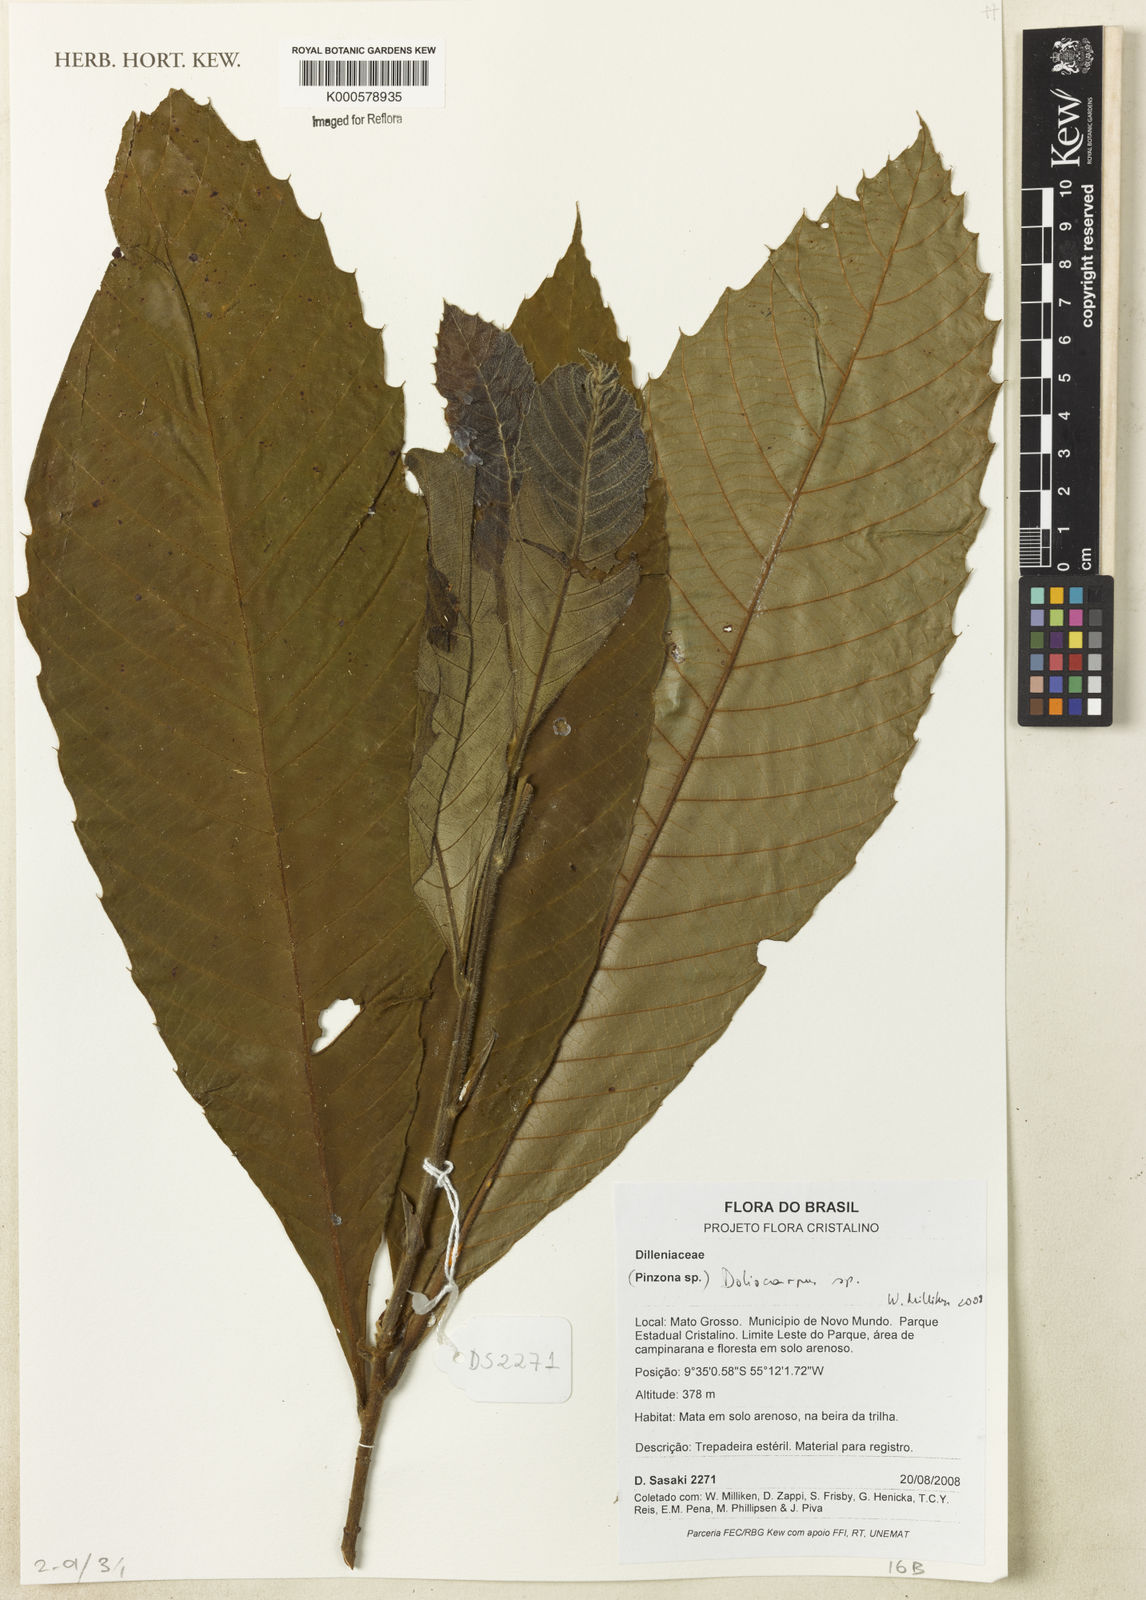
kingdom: Plantae
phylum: Tracheophyta
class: Magnoliopsida
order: Dilleniales
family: Dilleniaceae
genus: Doliocarpus
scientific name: Doliocarpus
